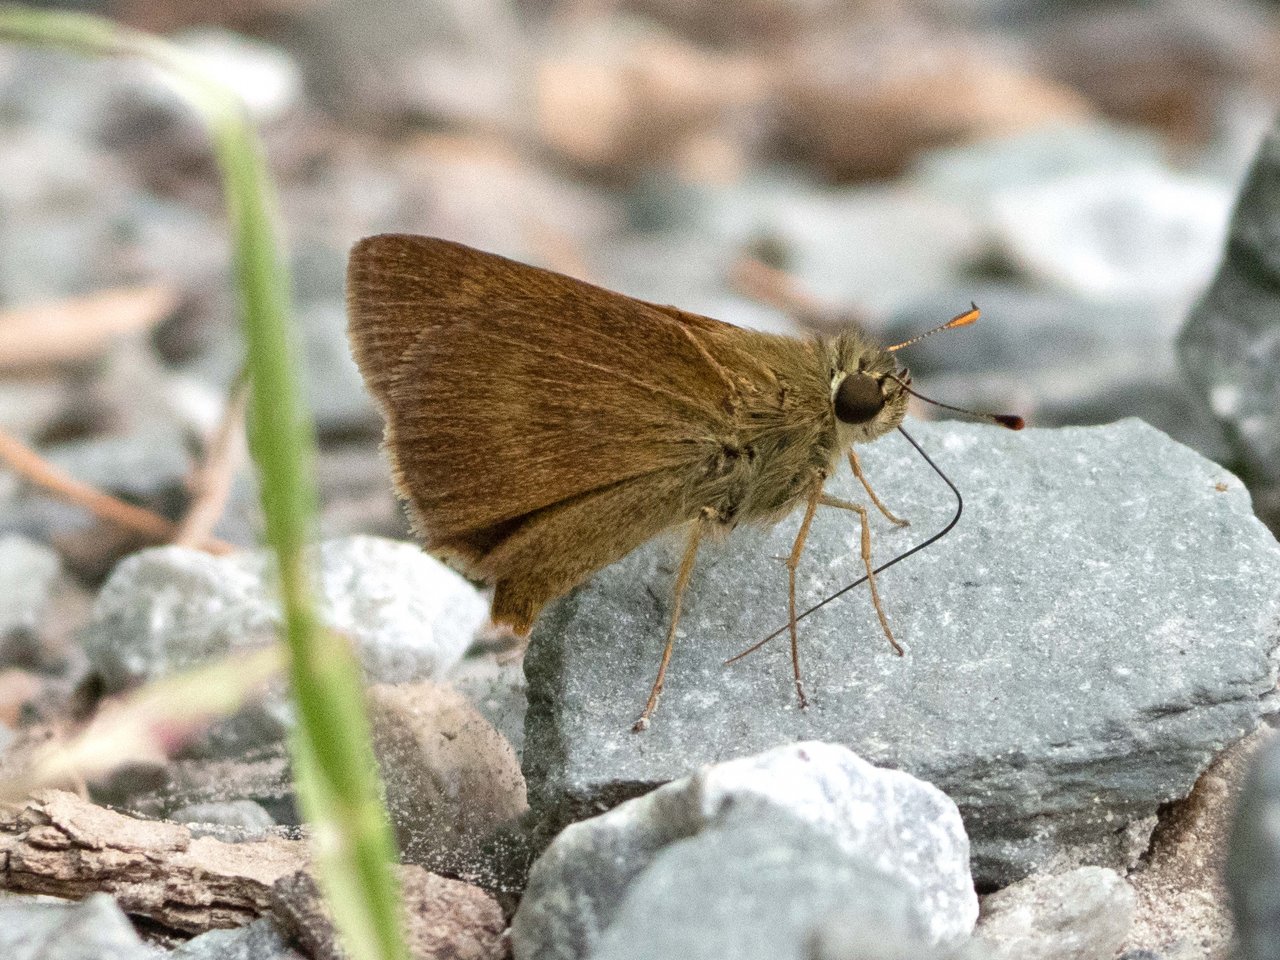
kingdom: Animalia
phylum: Arthropoda
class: Insecta
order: Lepidoptera
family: Hesperiidae
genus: Polites
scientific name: Polites egeremet
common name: Northern Broken-Dash
